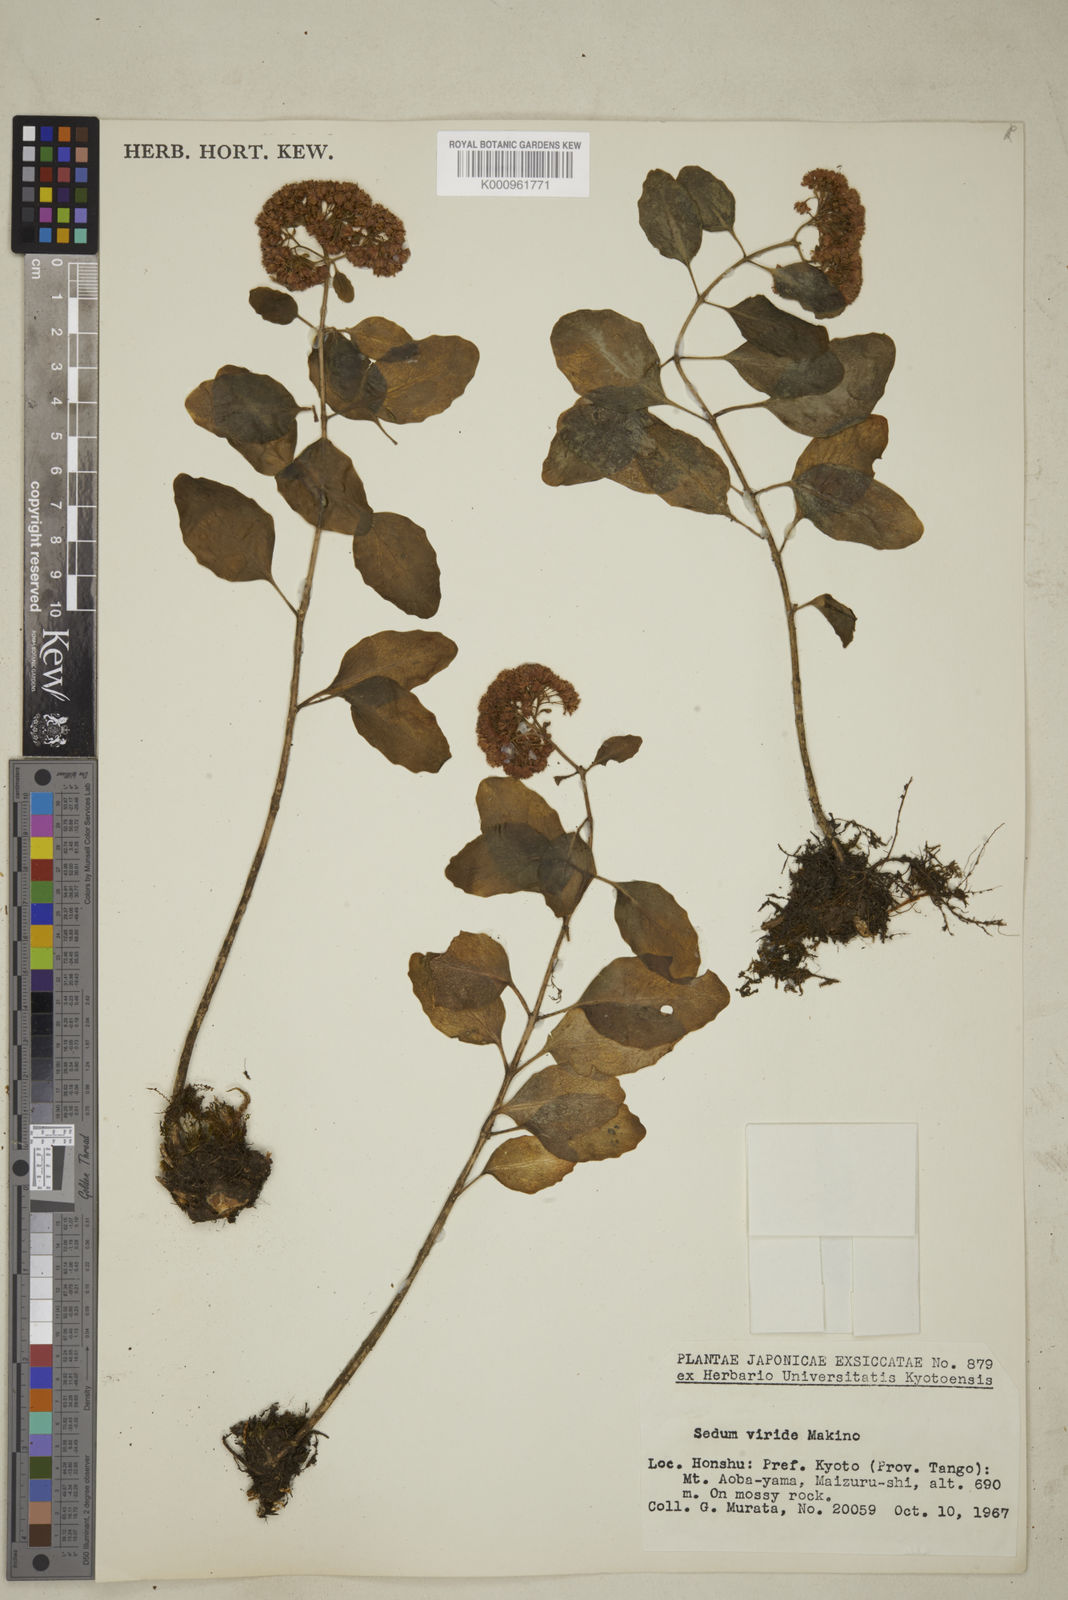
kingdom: Plantae
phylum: Tracheophyta
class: Magnoliopsida
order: Saxifragales
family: Crassulaceae
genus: Sedum
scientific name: Sedum
